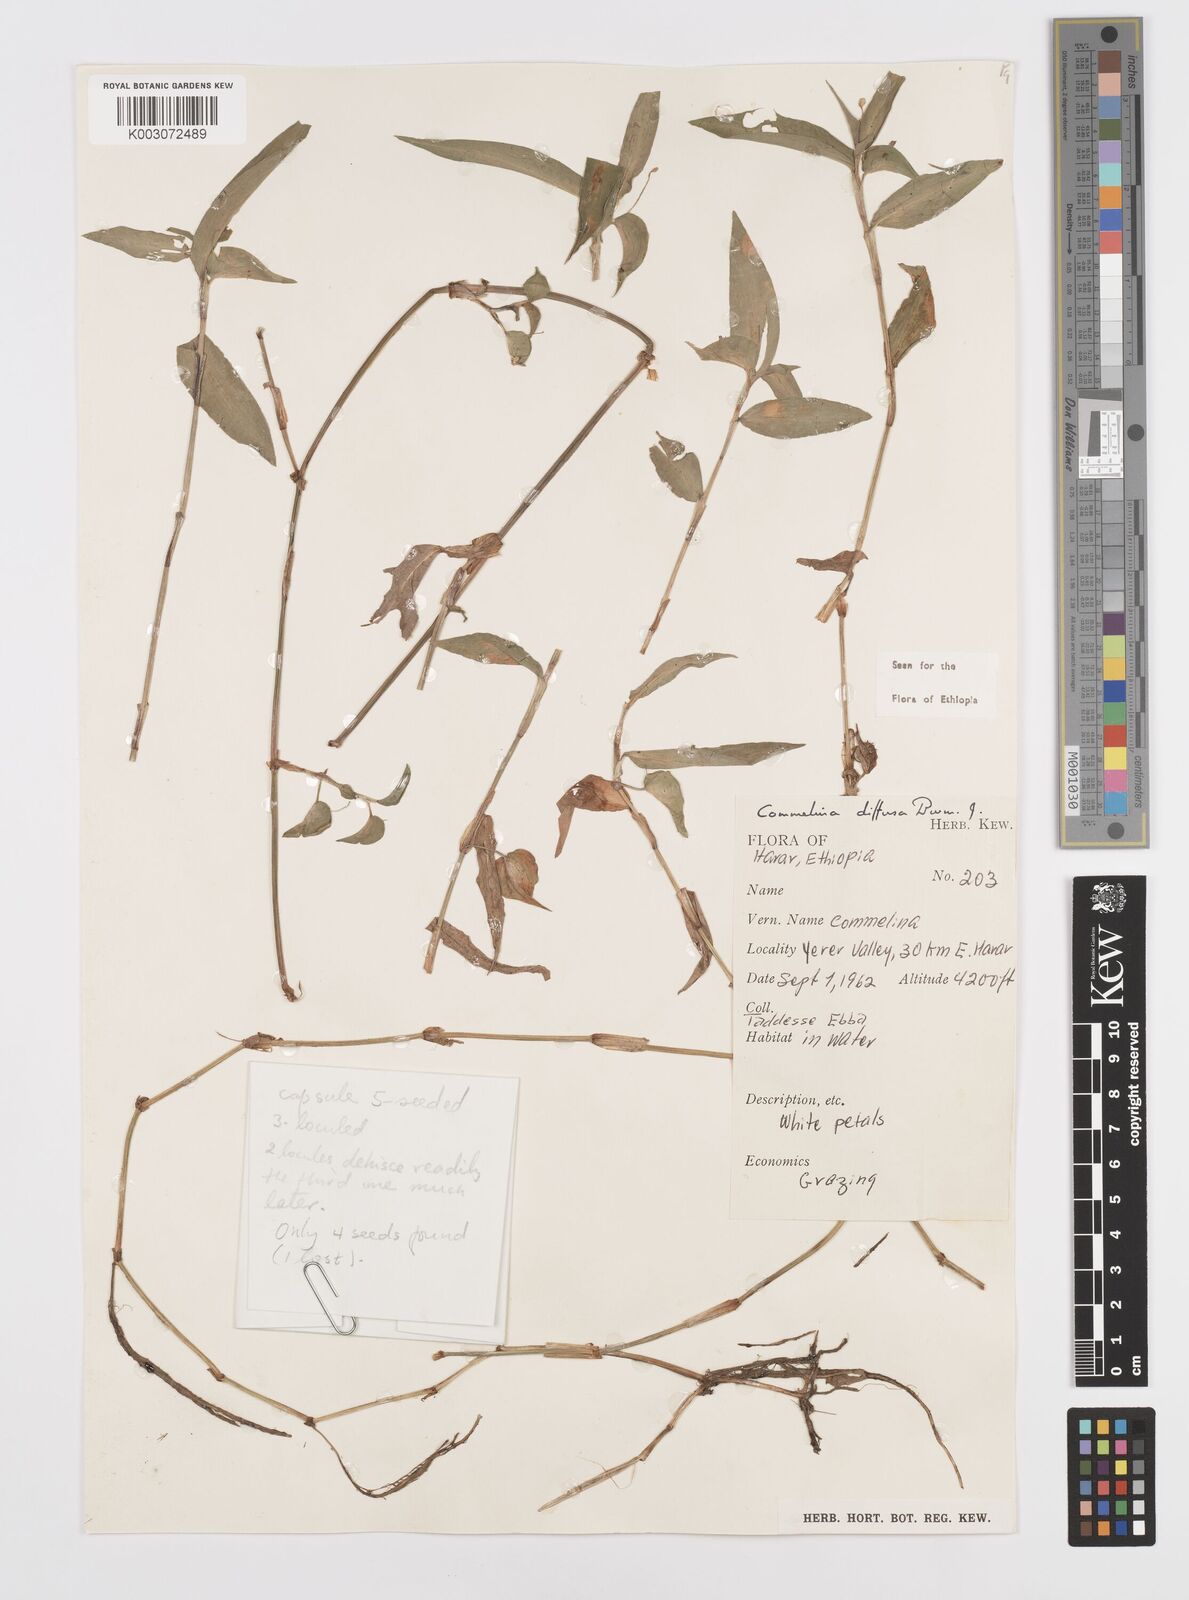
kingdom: Plantae
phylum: Tracheophyta
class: Liliopsida
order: Commelinales
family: Commelinaceae
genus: Commelina
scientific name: Commelina diffusa
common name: Climbing dayflower
